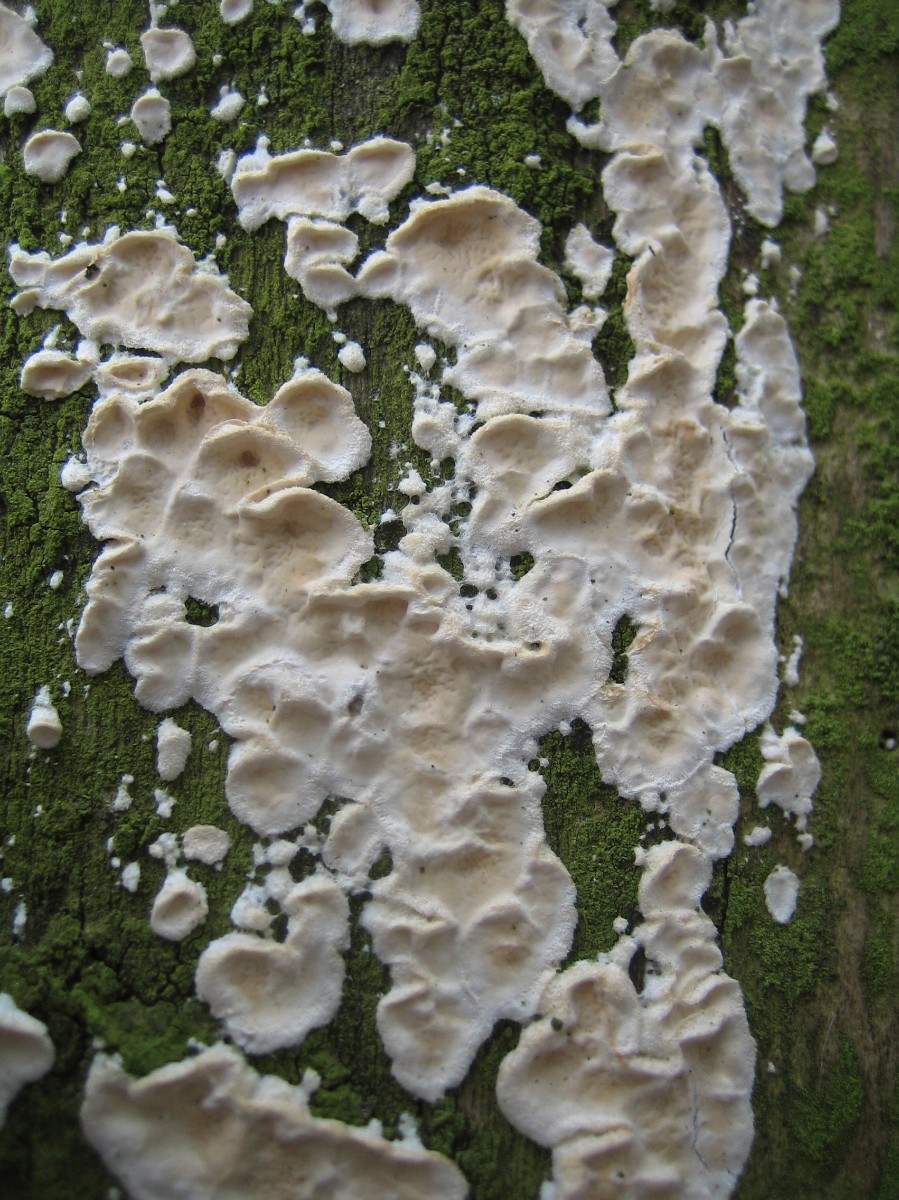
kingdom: Fungi
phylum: Basidiomycota
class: Agaricomycetes
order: Polyporales
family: Irpicaceae
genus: Byssomerulius
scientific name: Byssomerulius corium
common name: læder-åresvamp
